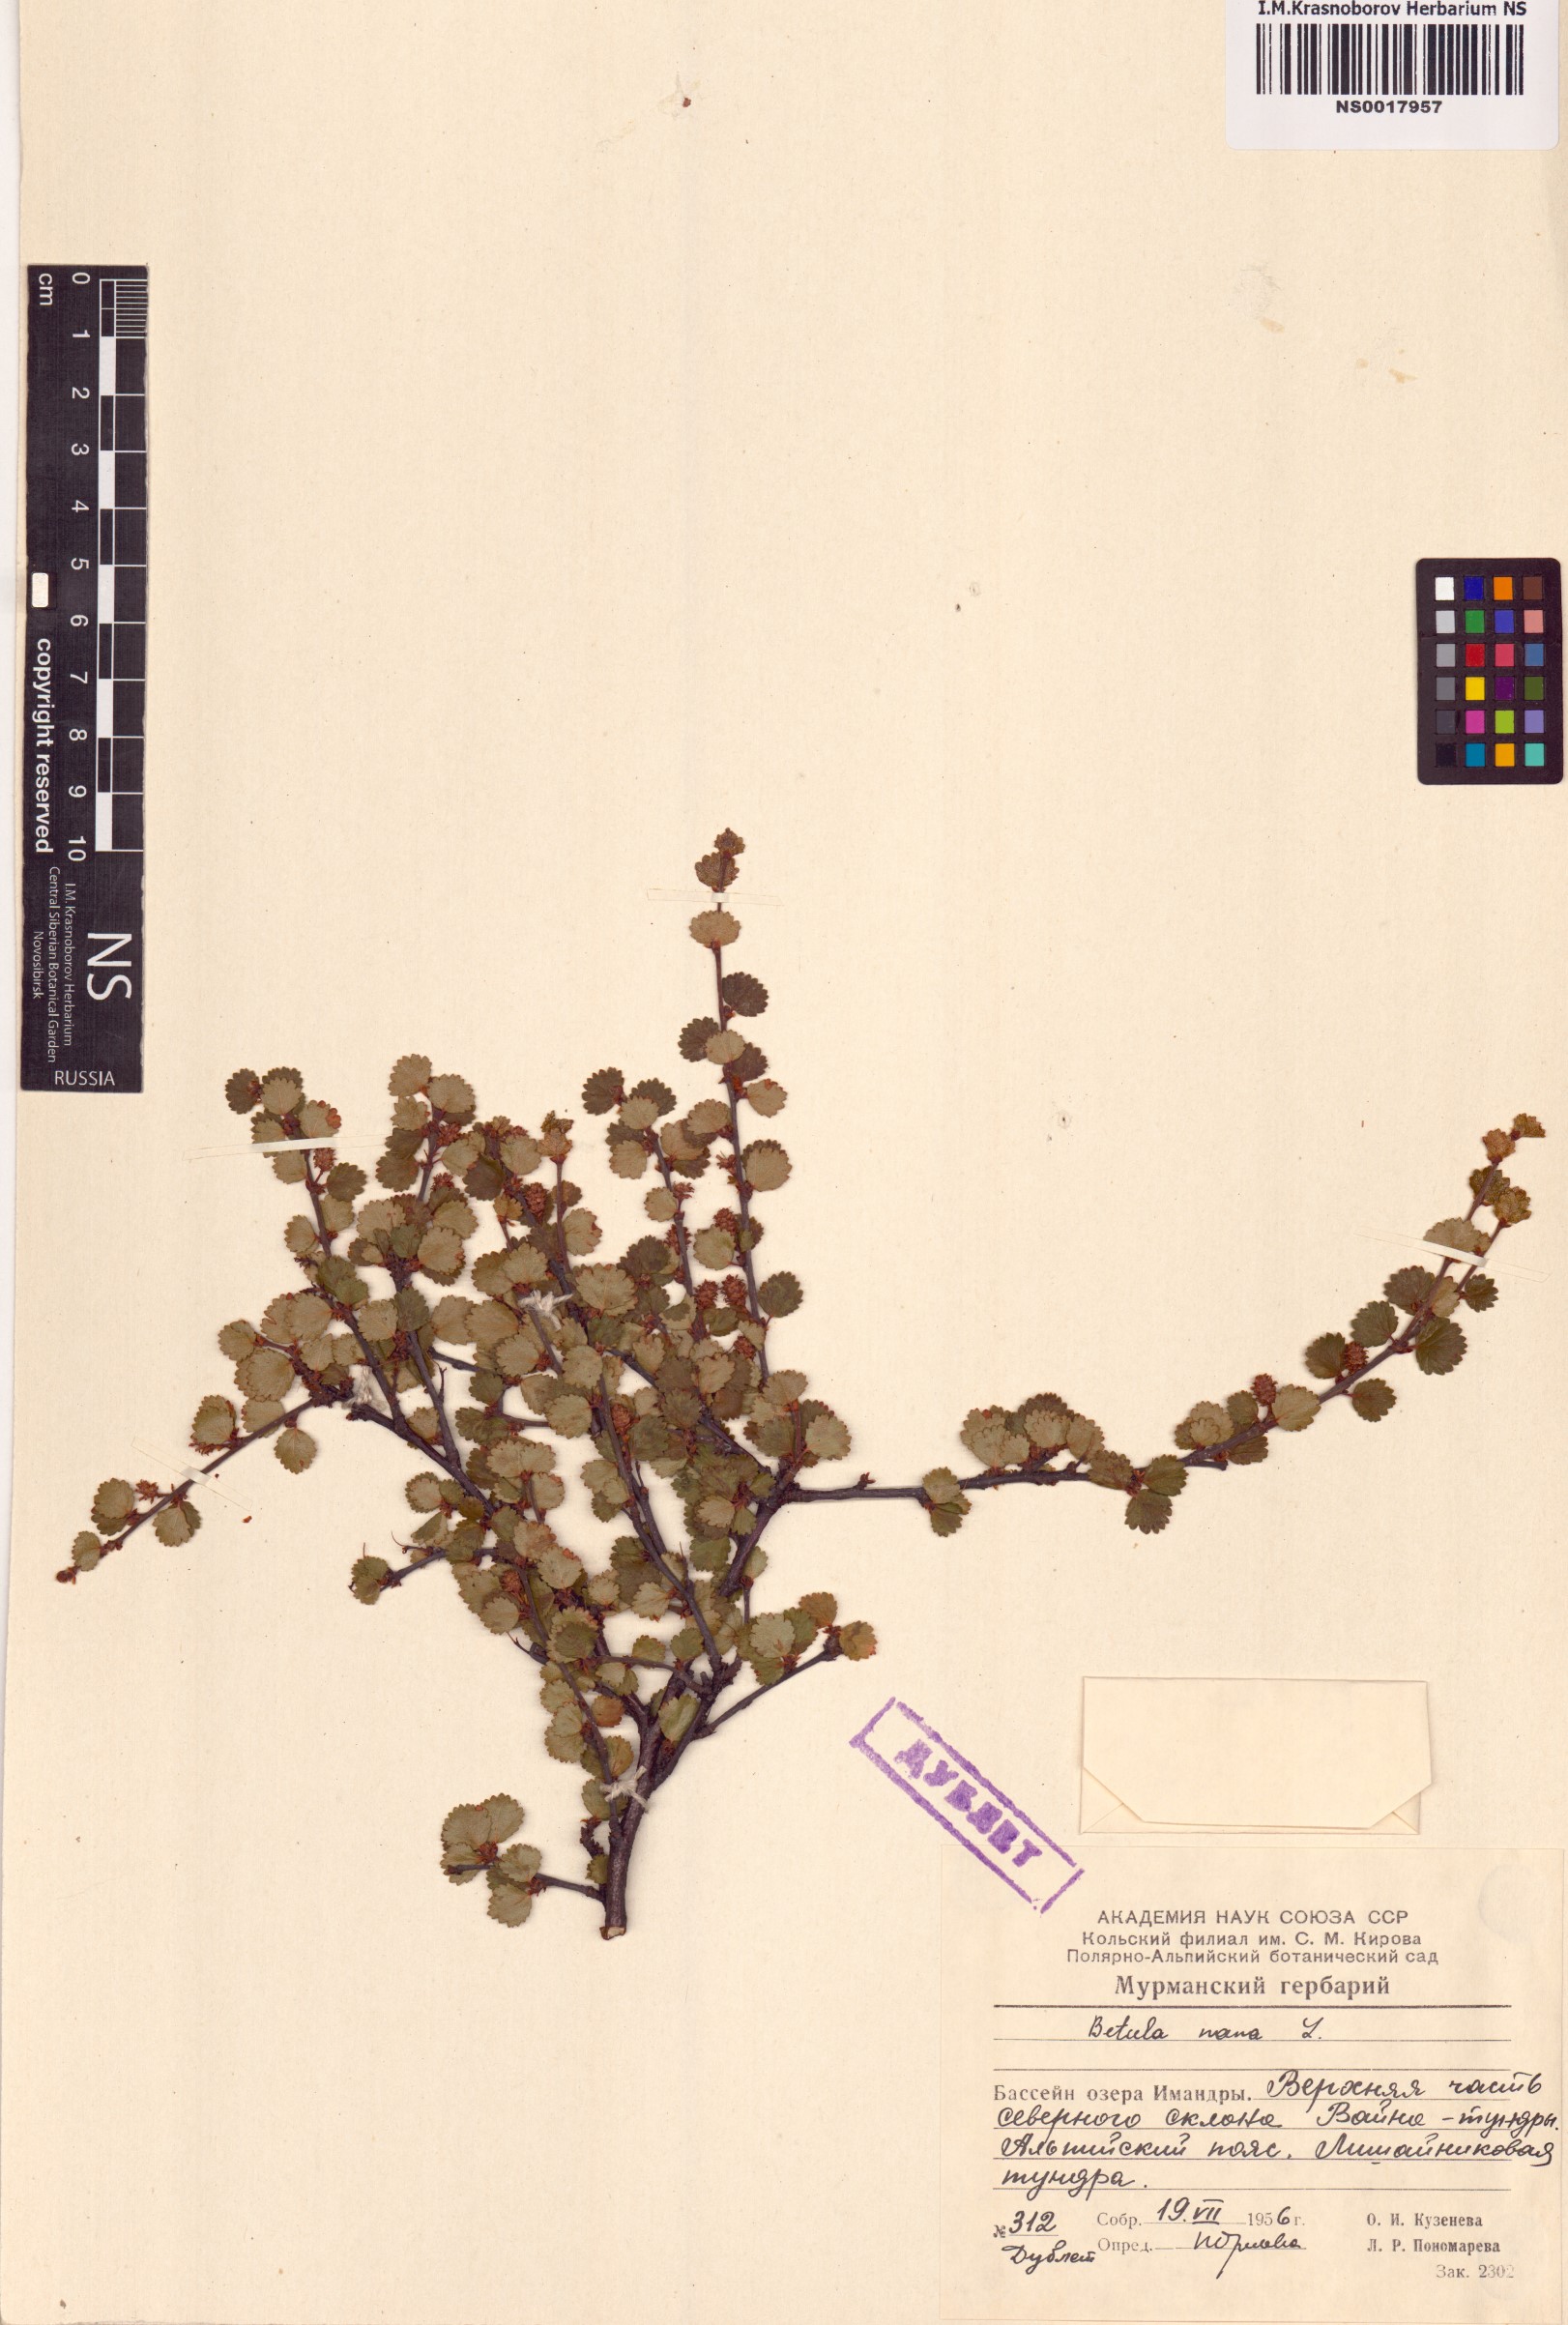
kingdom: Plantae
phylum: Tracheophyta
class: Magnoliopsida
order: Fagales
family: Betulaceae
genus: Betula
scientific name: Betula nana
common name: Arctic dwarf birch
